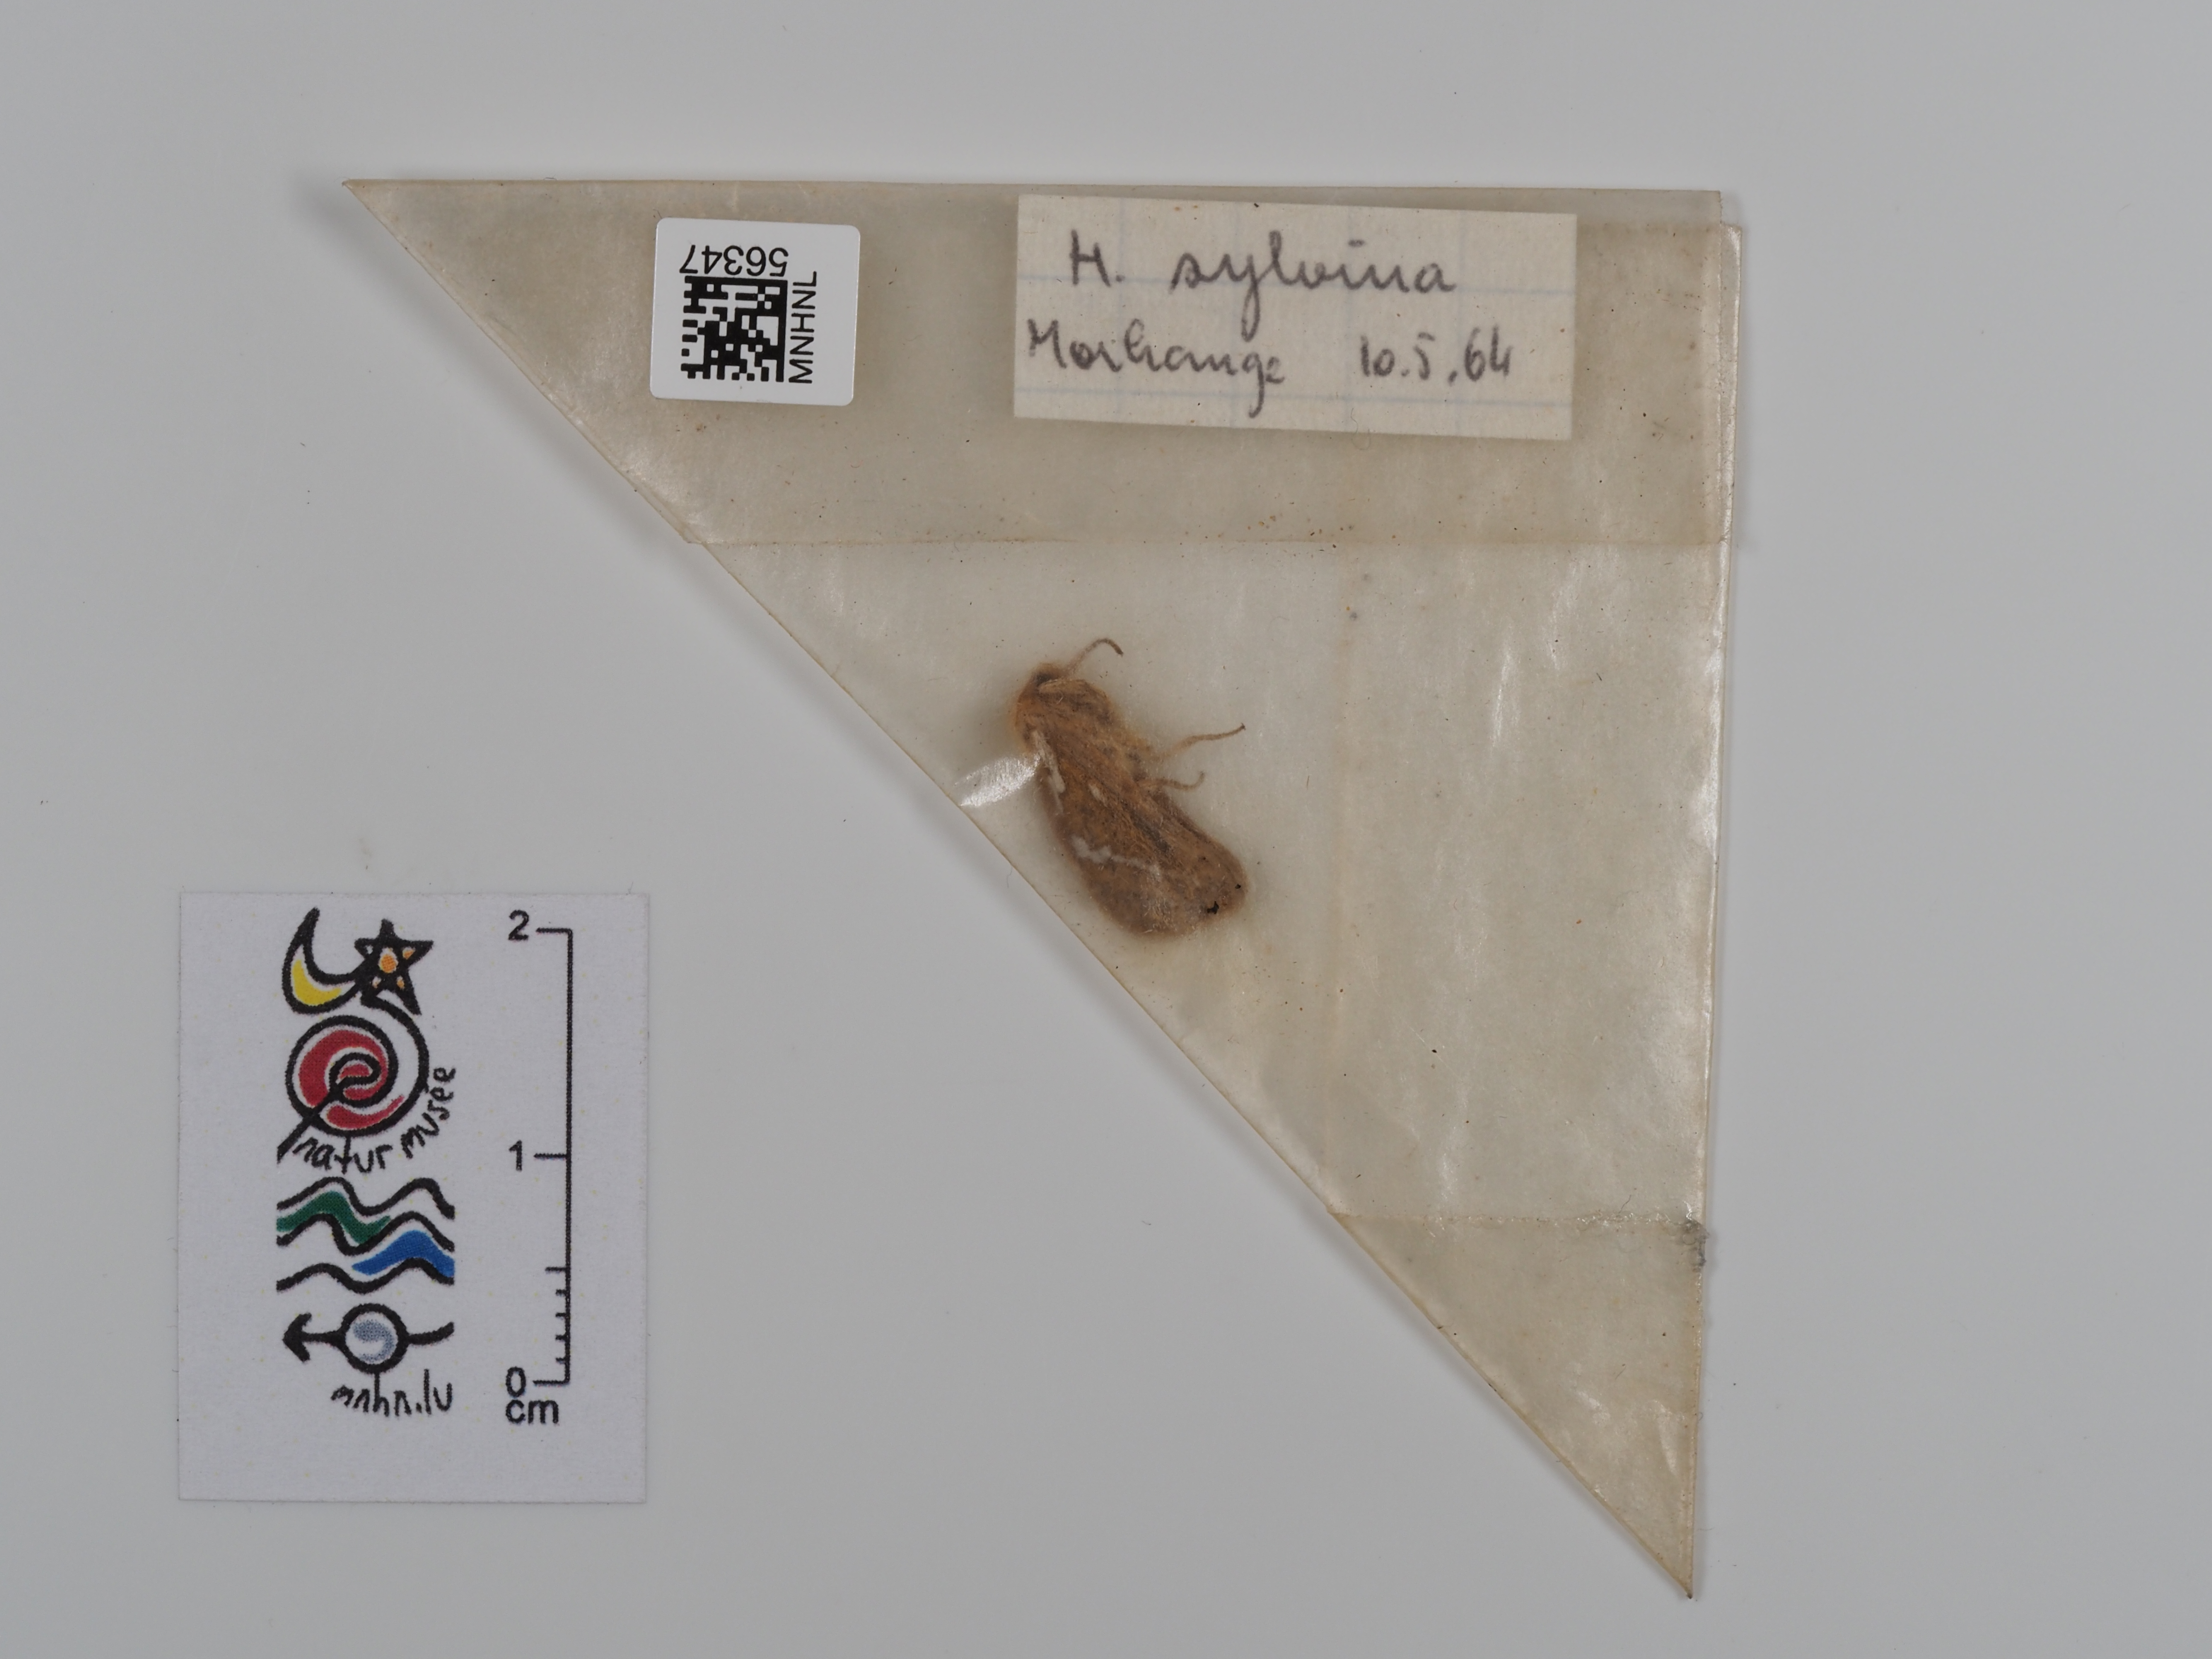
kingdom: Animalia
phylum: Arthropoda
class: Insecta
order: Lepidoptera
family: Hepialidae
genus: Triodia
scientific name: Triodia sylvina
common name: Orange swift
